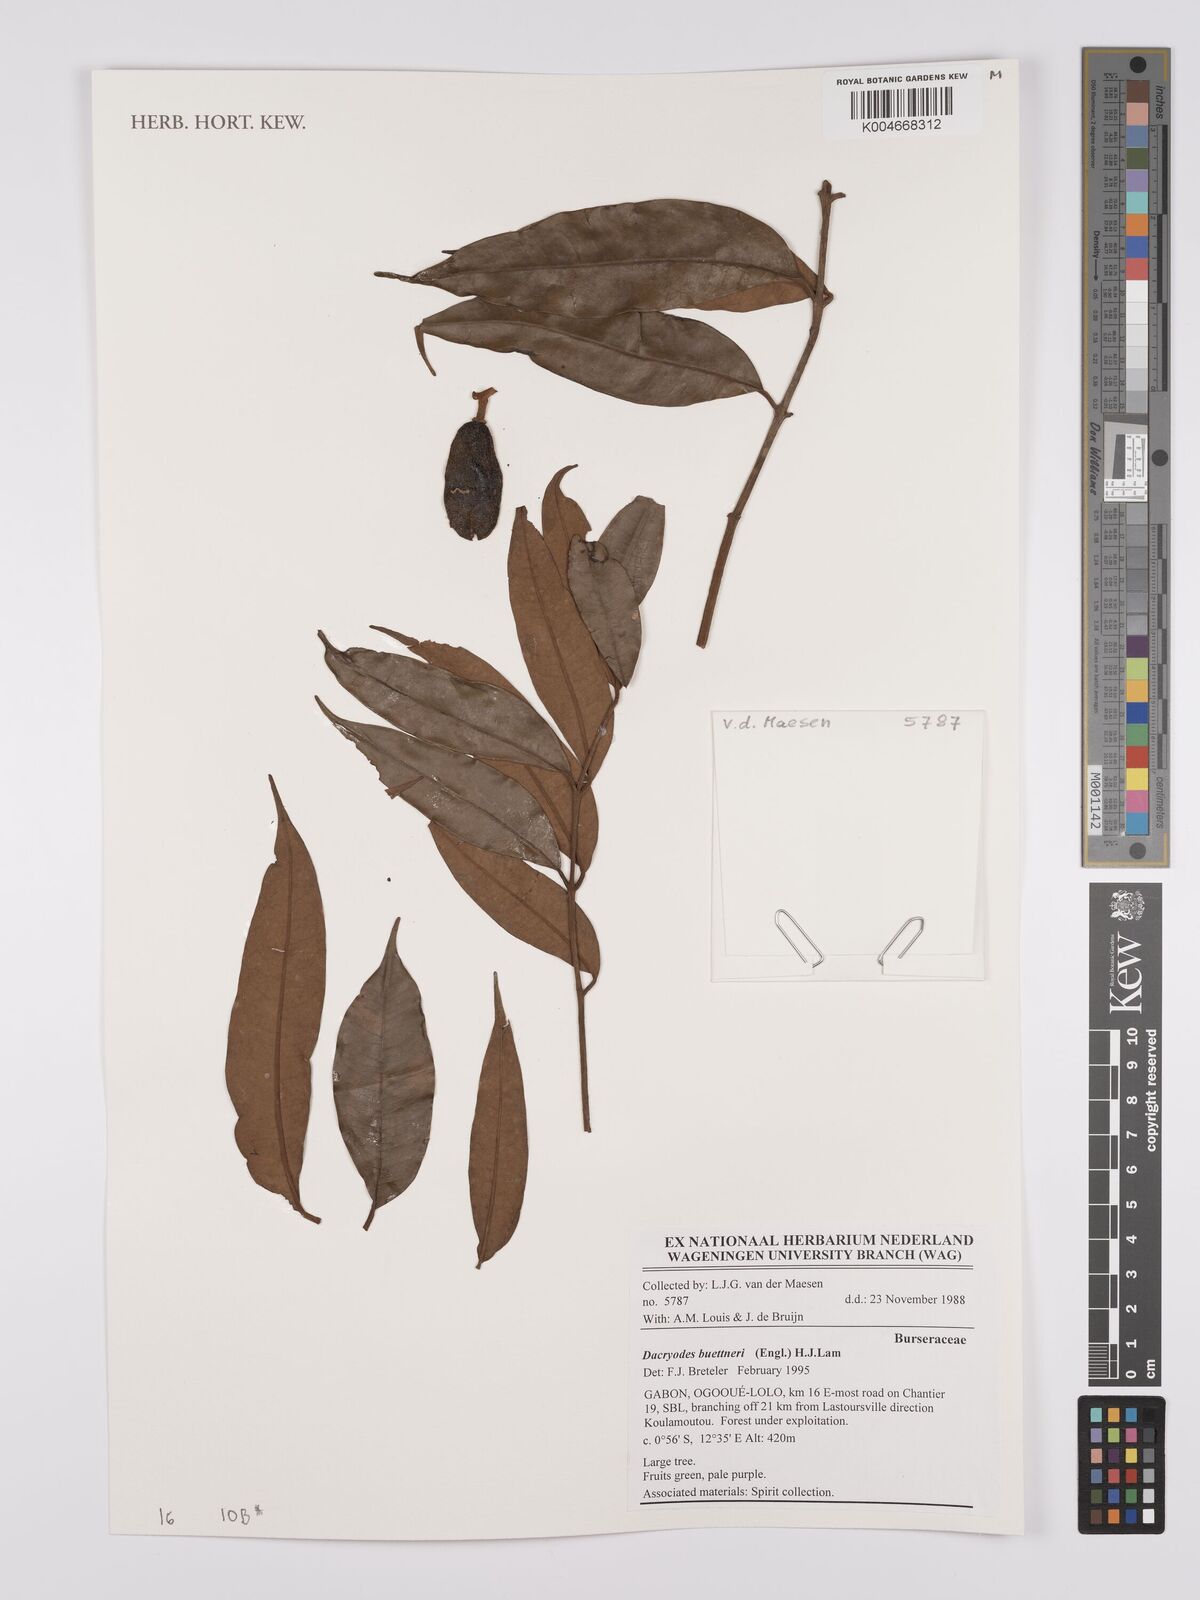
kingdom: Plantae
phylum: Tracheophyta
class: Magnoliopsida
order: Sapindales
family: Burseraceae
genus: Pachylobus
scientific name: Pachylobus buettneri
